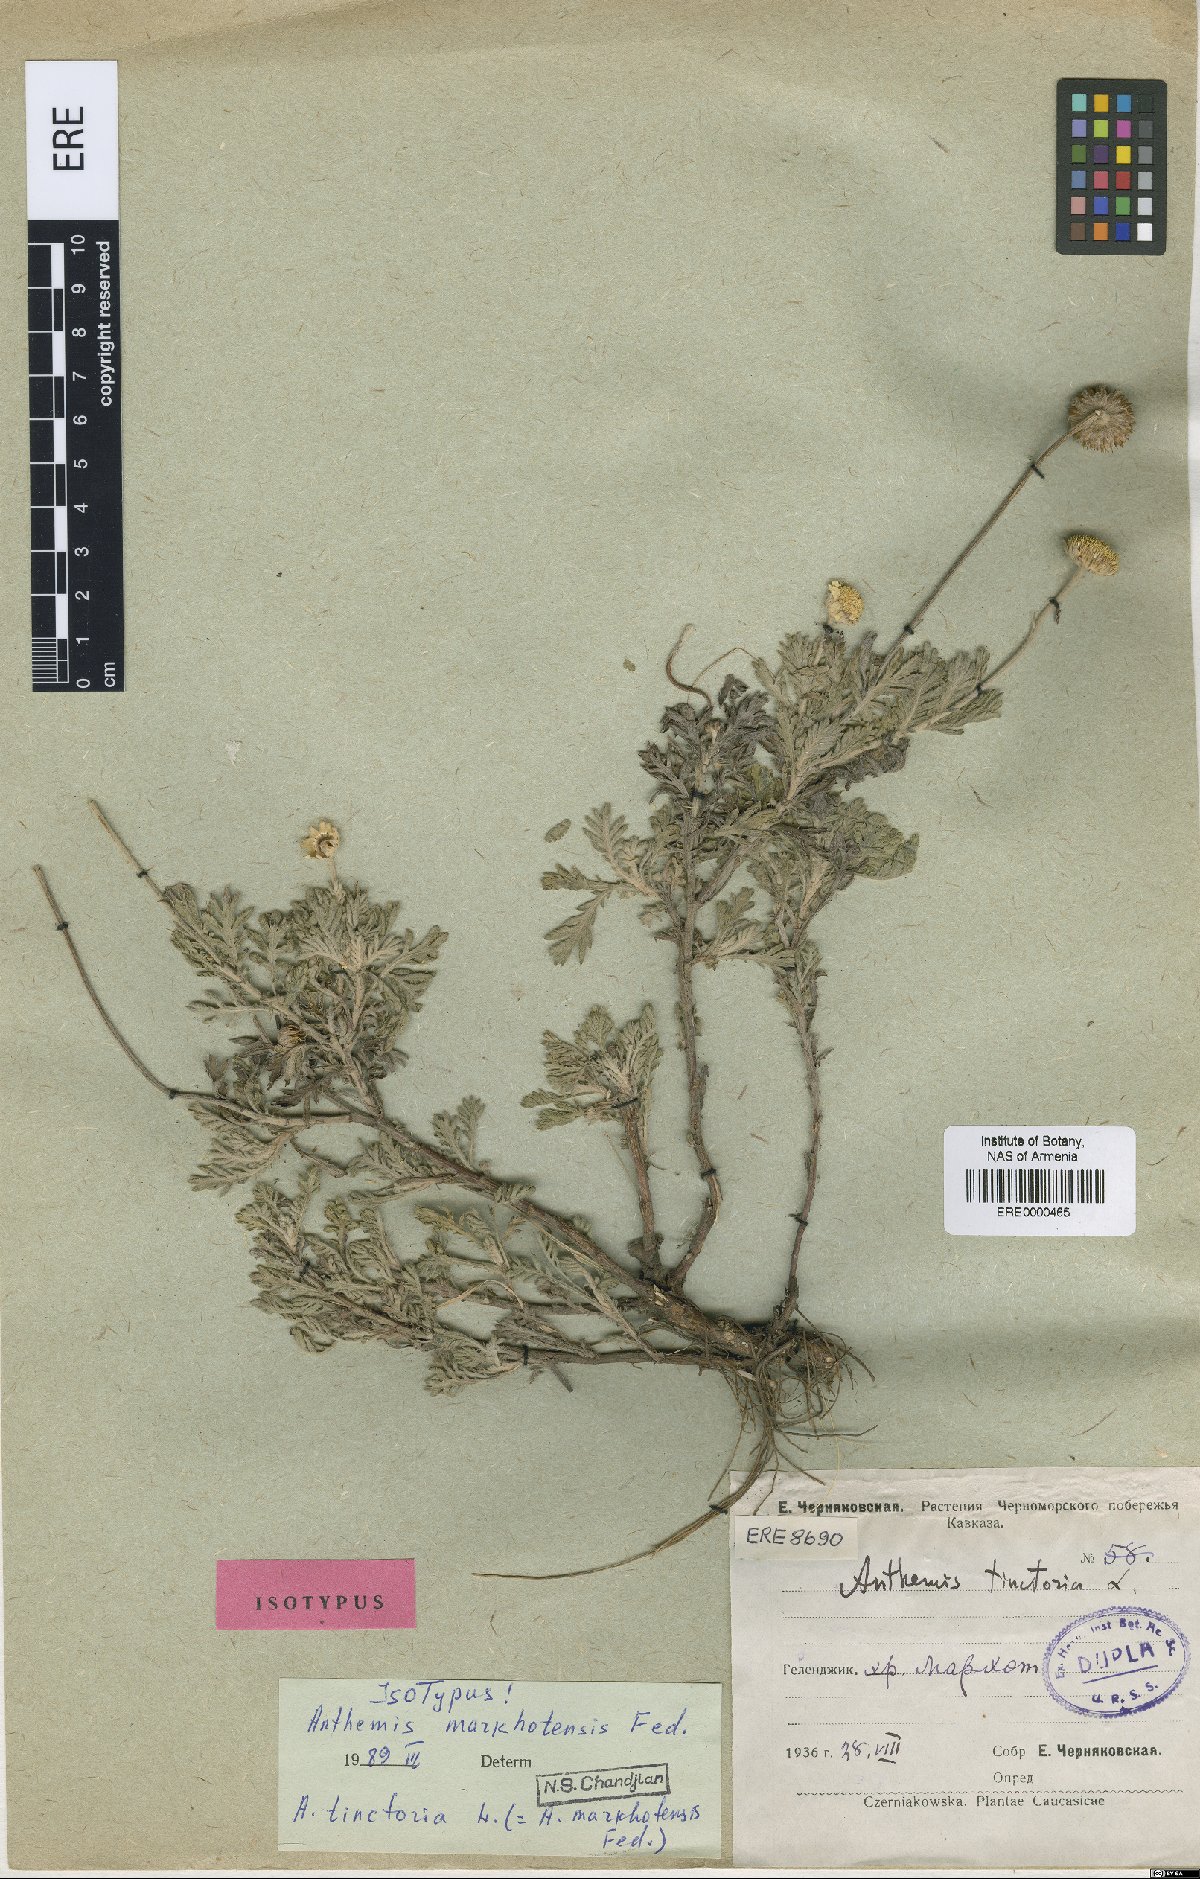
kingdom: Plantae
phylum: Tracheophyta
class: Magnoliopsida
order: Asterales
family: Asteraceae
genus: Cota
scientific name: Cota tinctoria
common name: Golden chamomile
